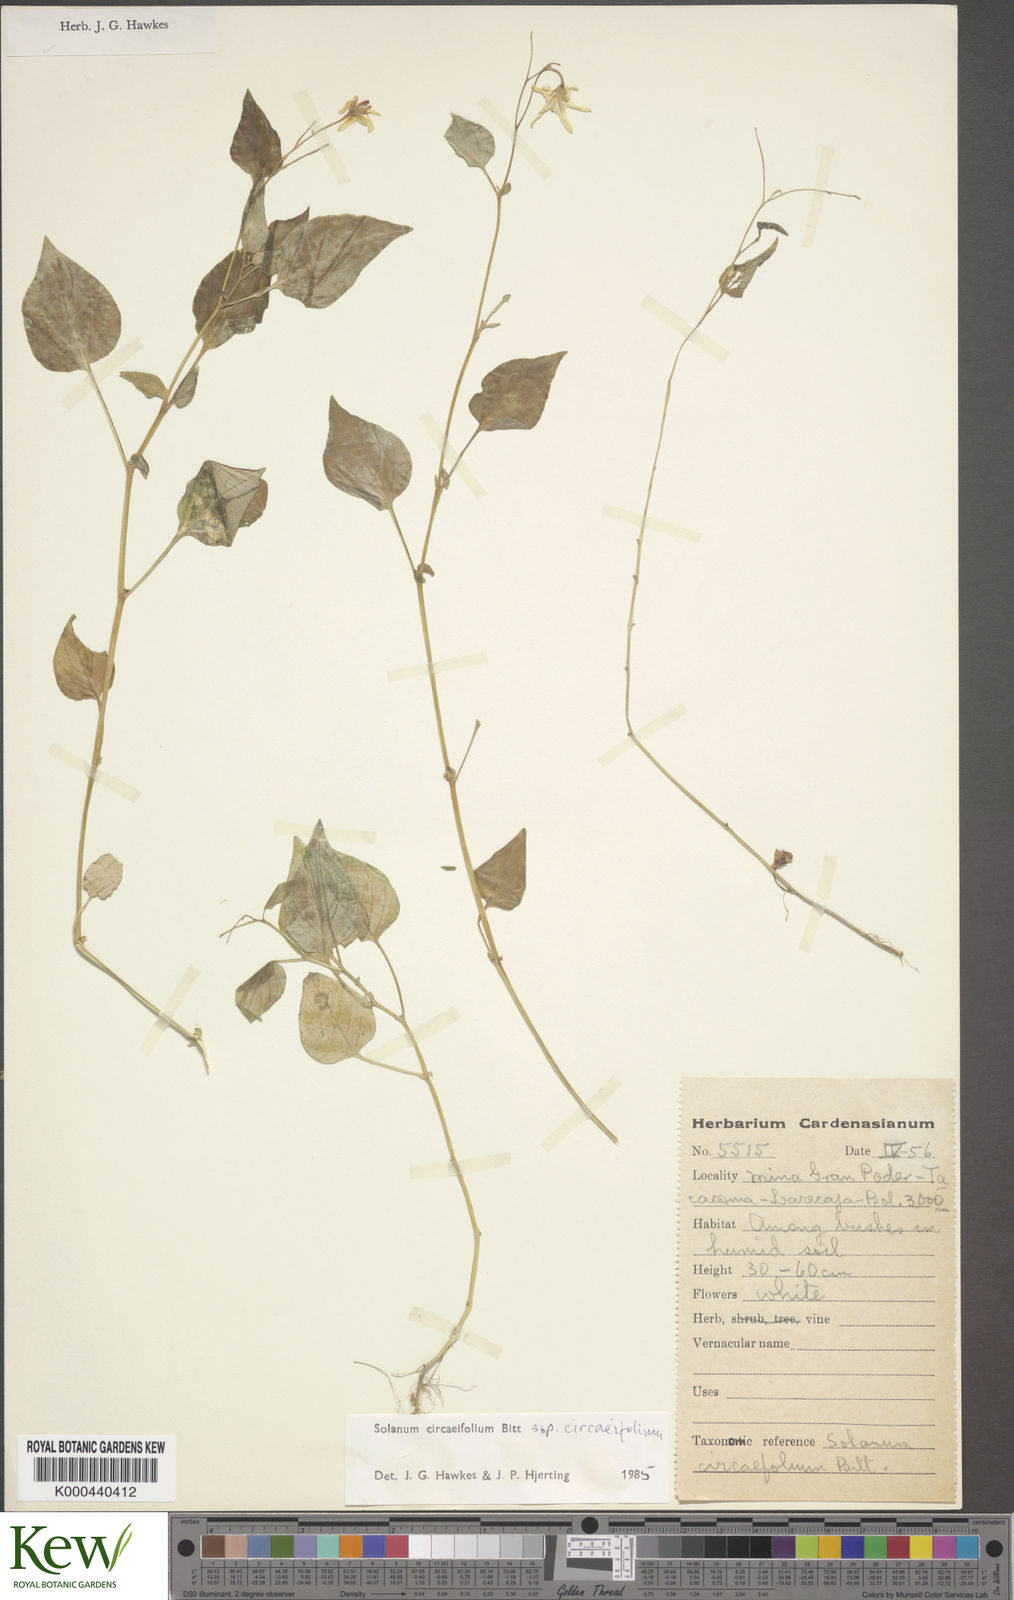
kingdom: Plantae
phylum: Tracheophyta
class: Magnoliopsida
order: Solanales
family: Solanaceae
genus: Solanum
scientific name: Solanum stipuloideum
